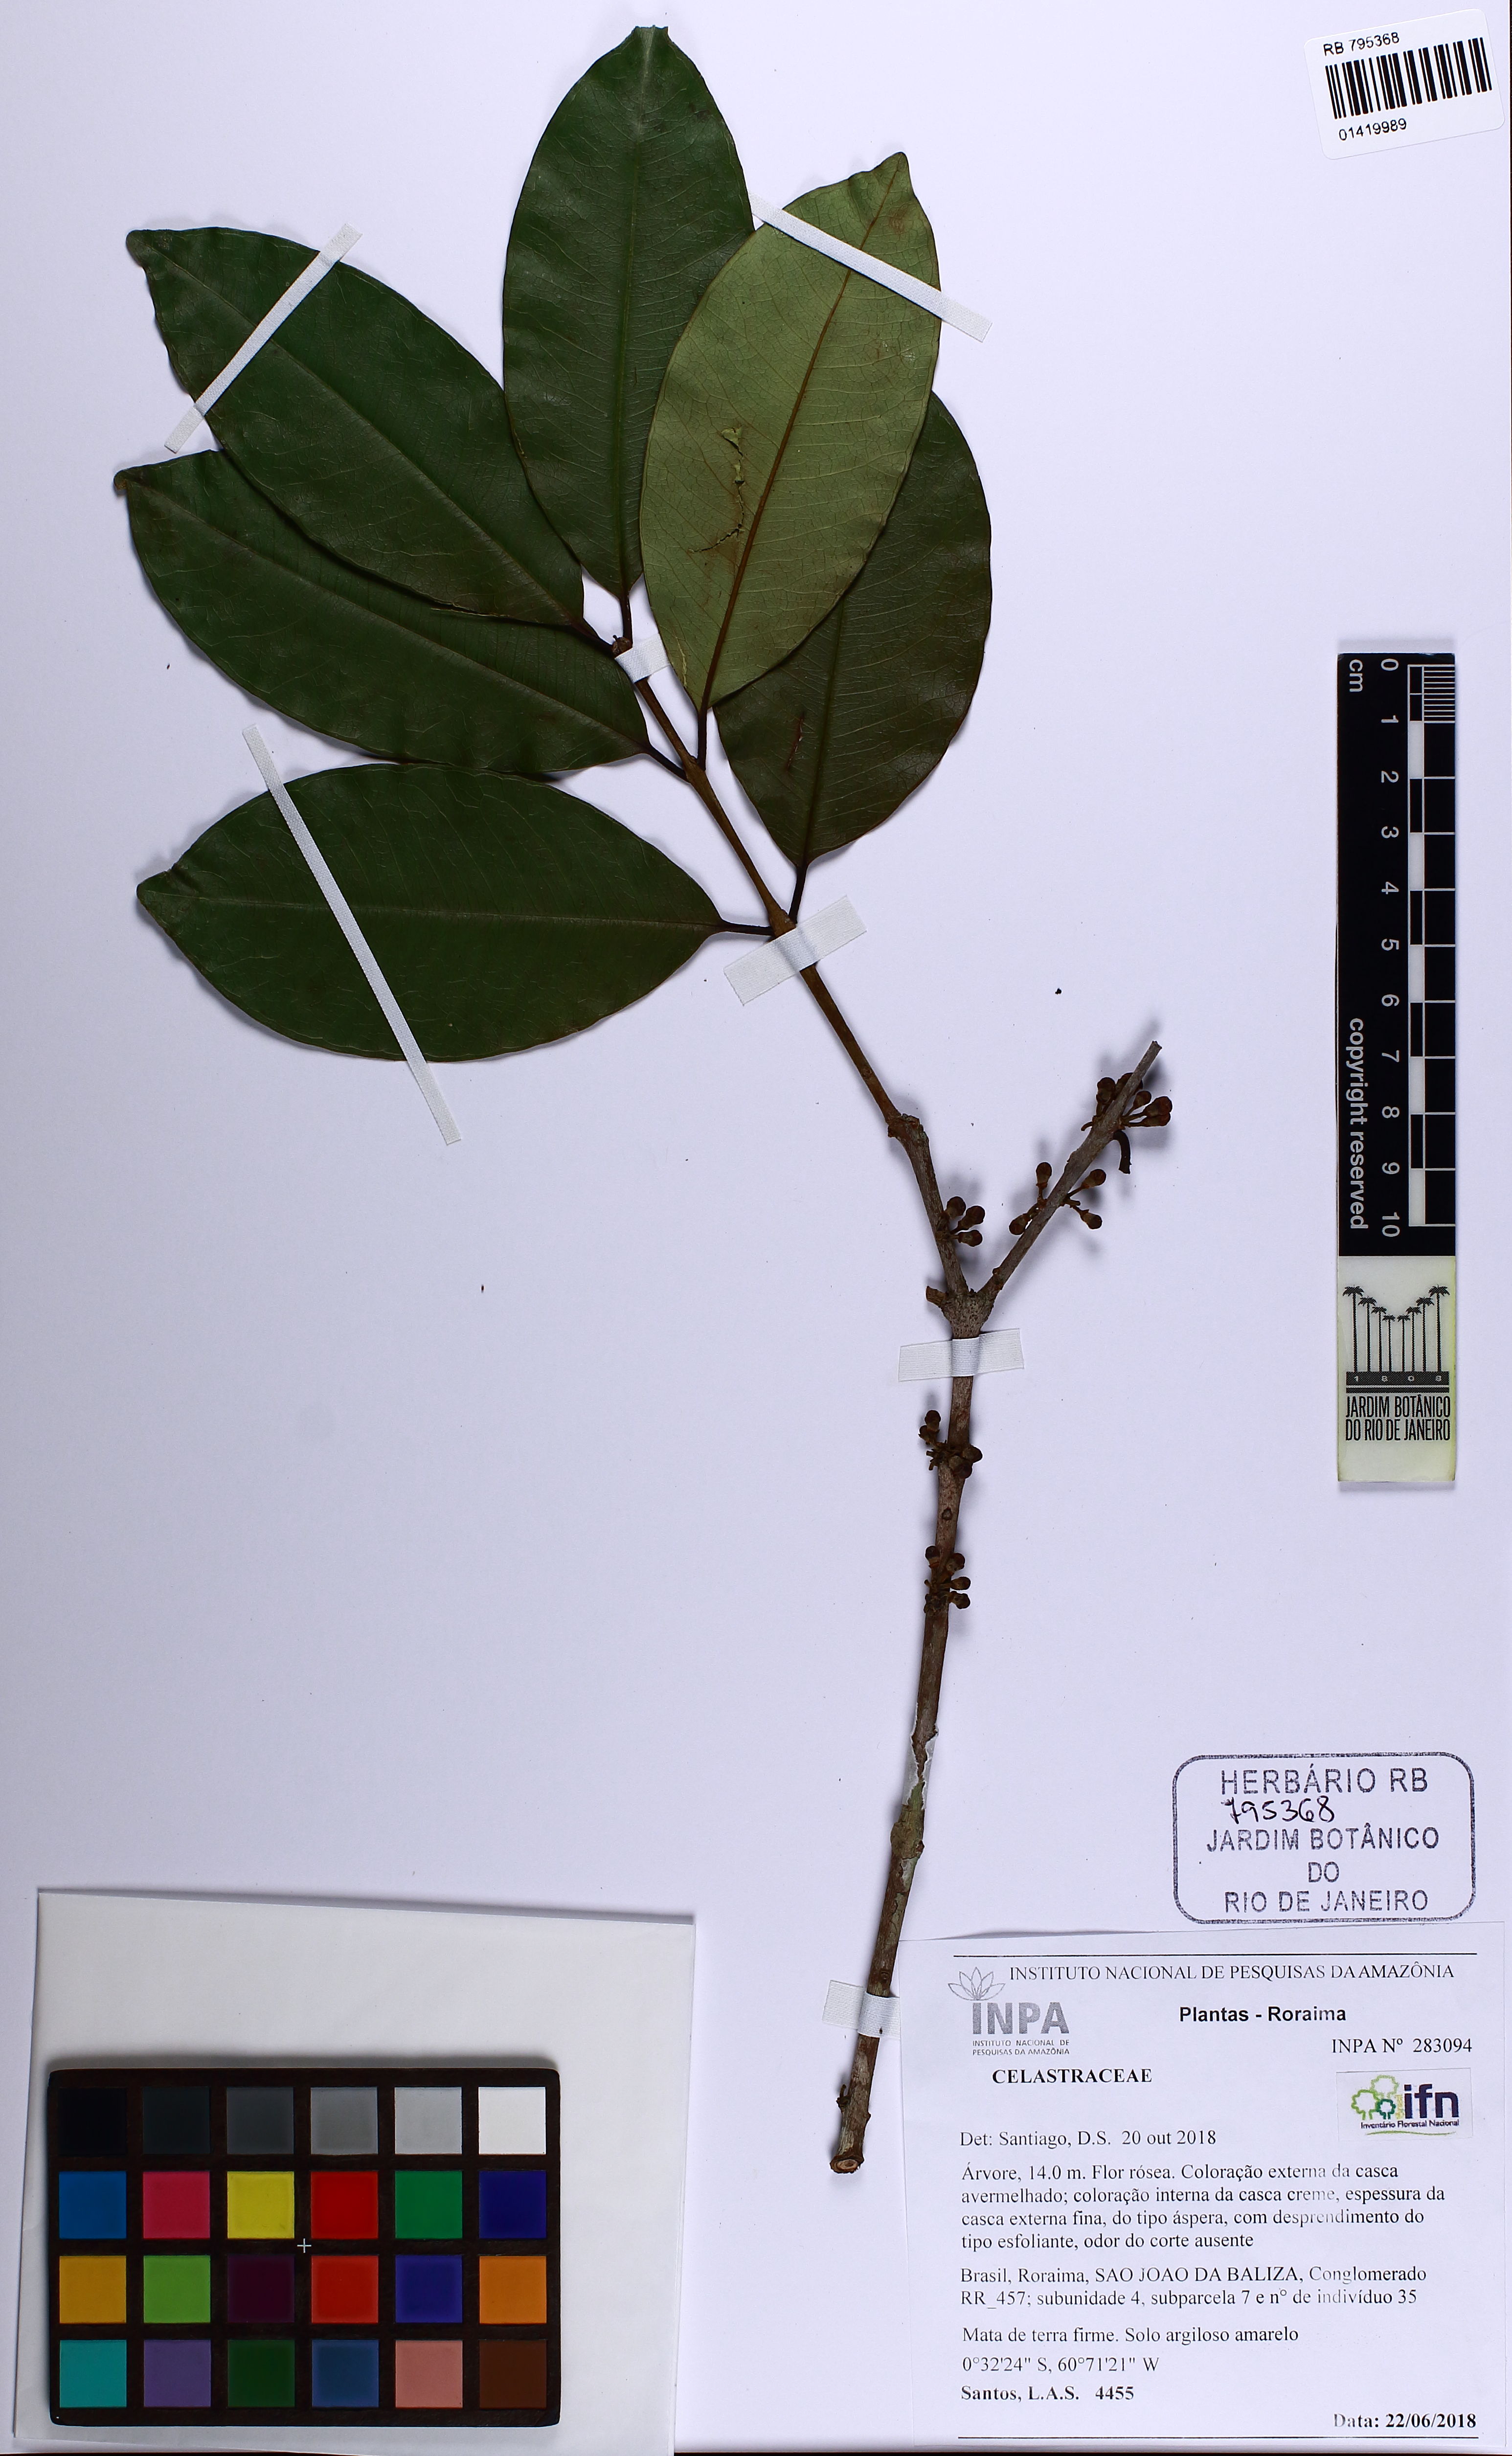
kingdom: Plantae
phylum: Tracheophyta
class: Magnoliopsida
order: Celastrales
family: Celastraceae
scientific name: Celastraceae
